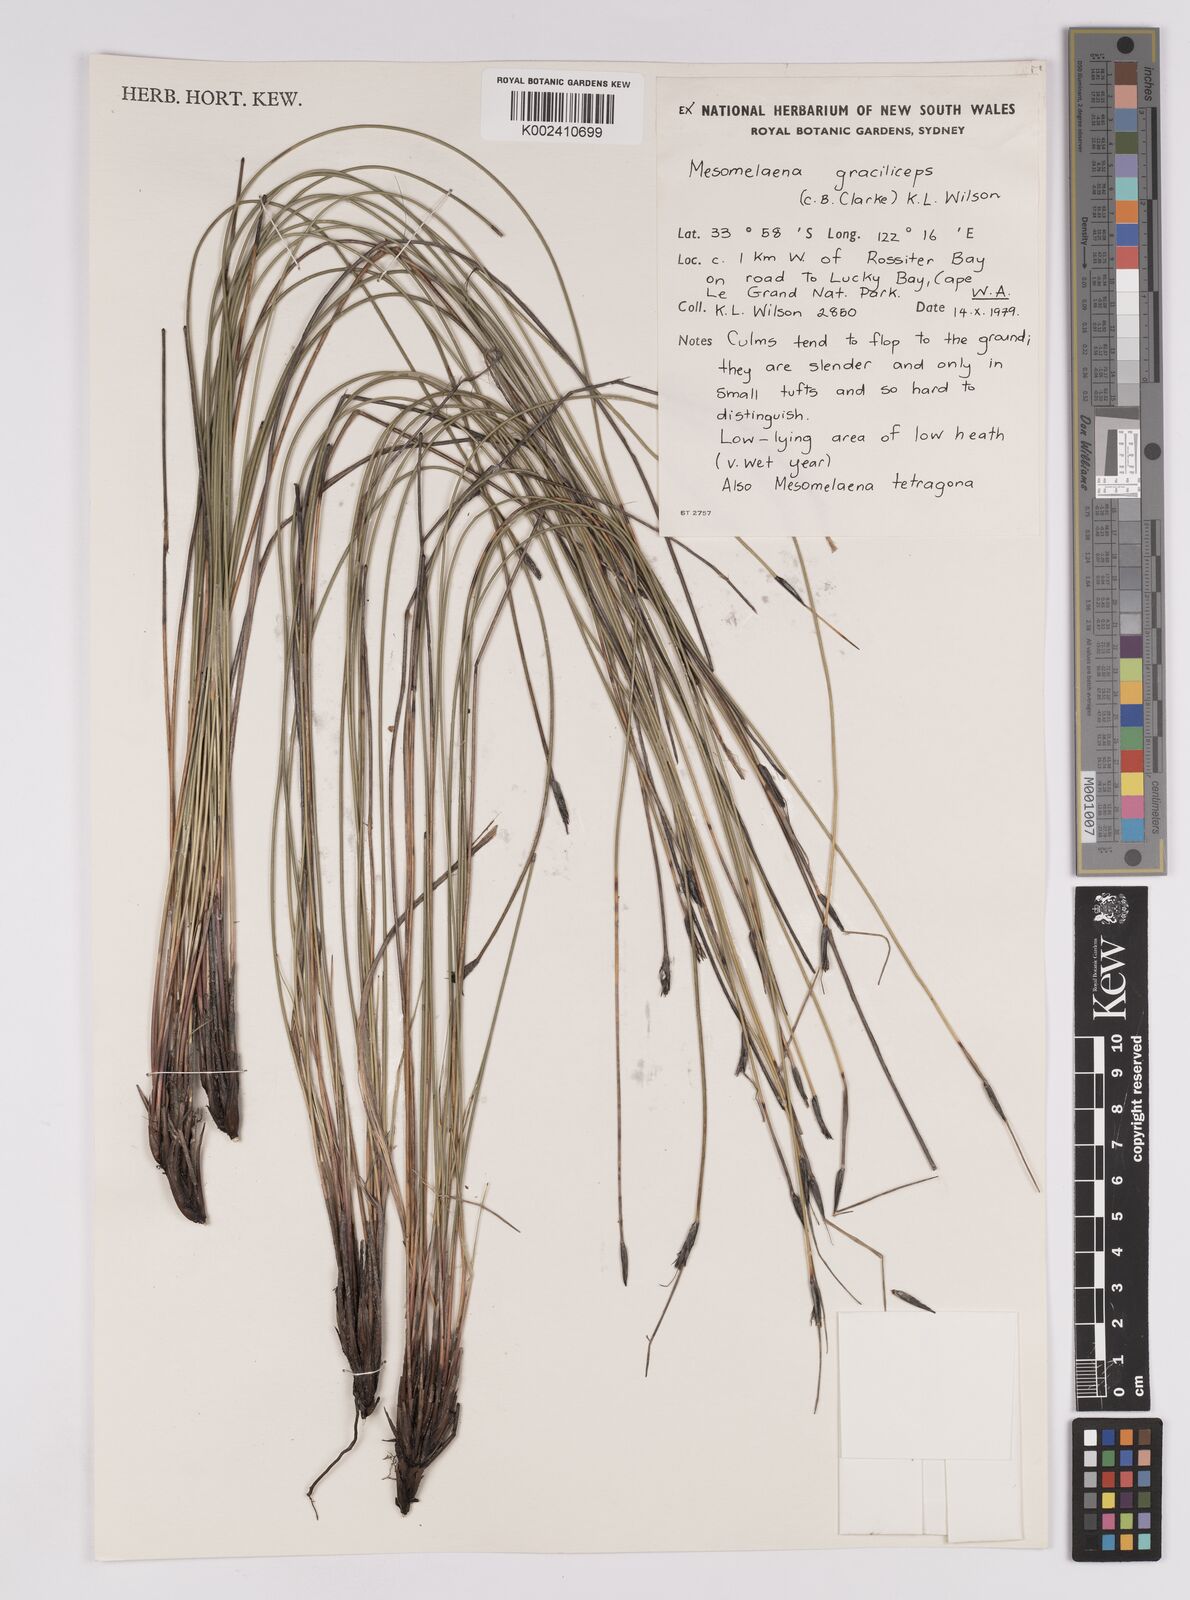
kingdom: Plantae
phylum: Tracheophyta
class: Liliopsida
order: Poales
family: Cyperaceae
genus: Mesomelaena
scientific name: Mesomelaena graciliceps
